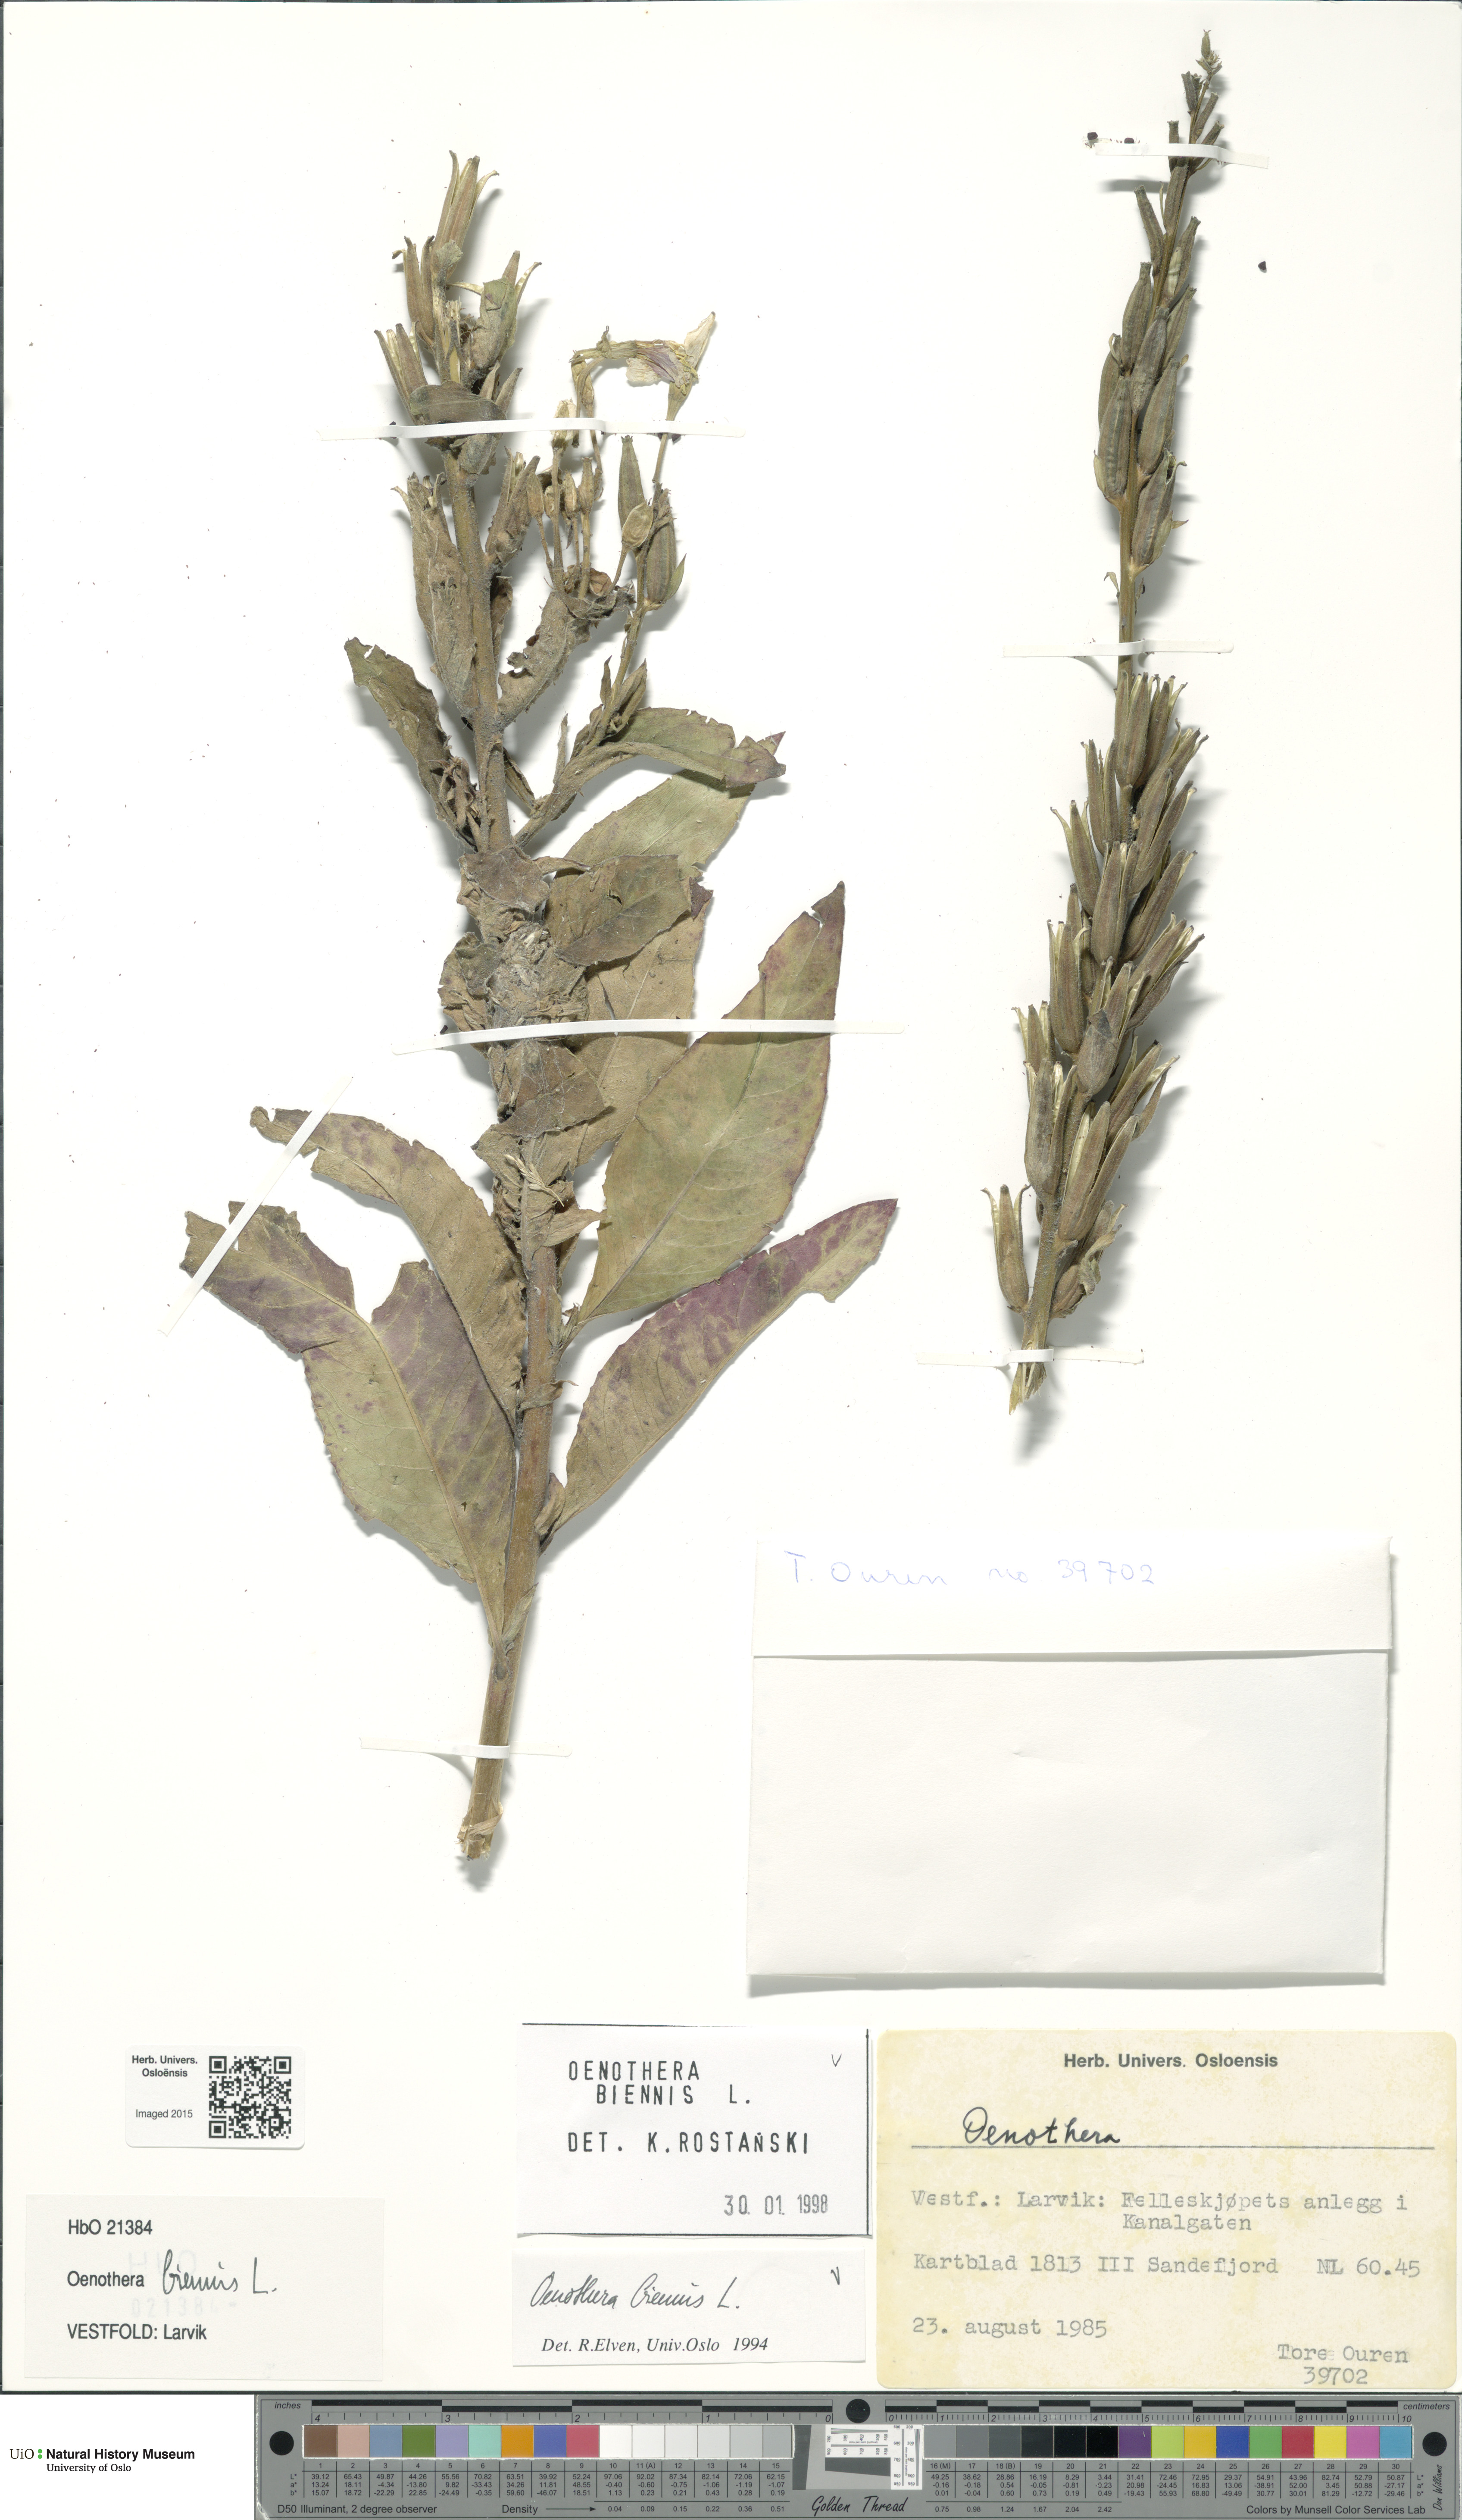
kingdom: Plantae
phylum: Tracheophyta
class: Magnoliopsida
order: Myrtales
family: Onagraceae
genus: Oenothera
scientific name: Oenothera biennis
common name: Common evening-primrose
